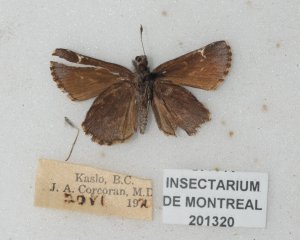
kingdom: Animalia
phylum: Arthropoda
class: Insecta
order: Lepidoptera
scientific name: Lepidoptera
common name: Butterflies
